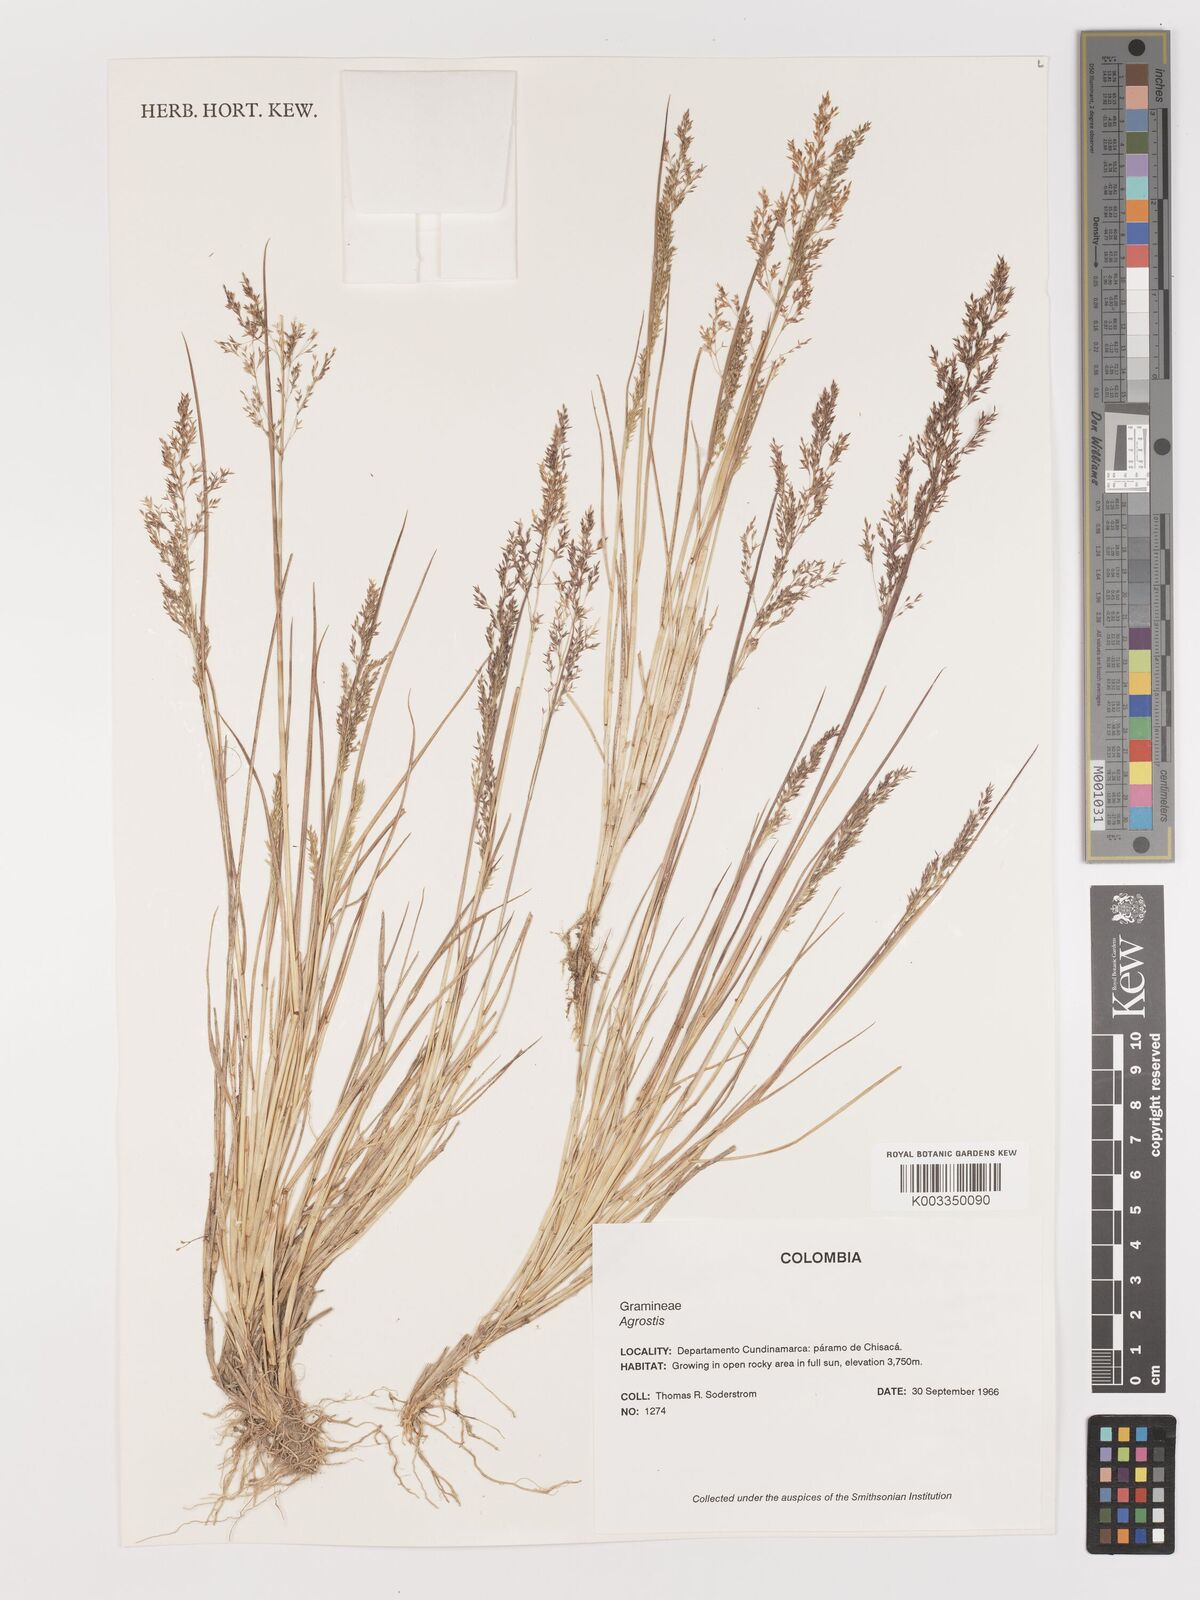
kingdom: Plantae
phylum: Tracheophyta
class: Liliopsida
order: Poales
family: Poaceae
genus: Agrostis
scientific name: Agrostis
